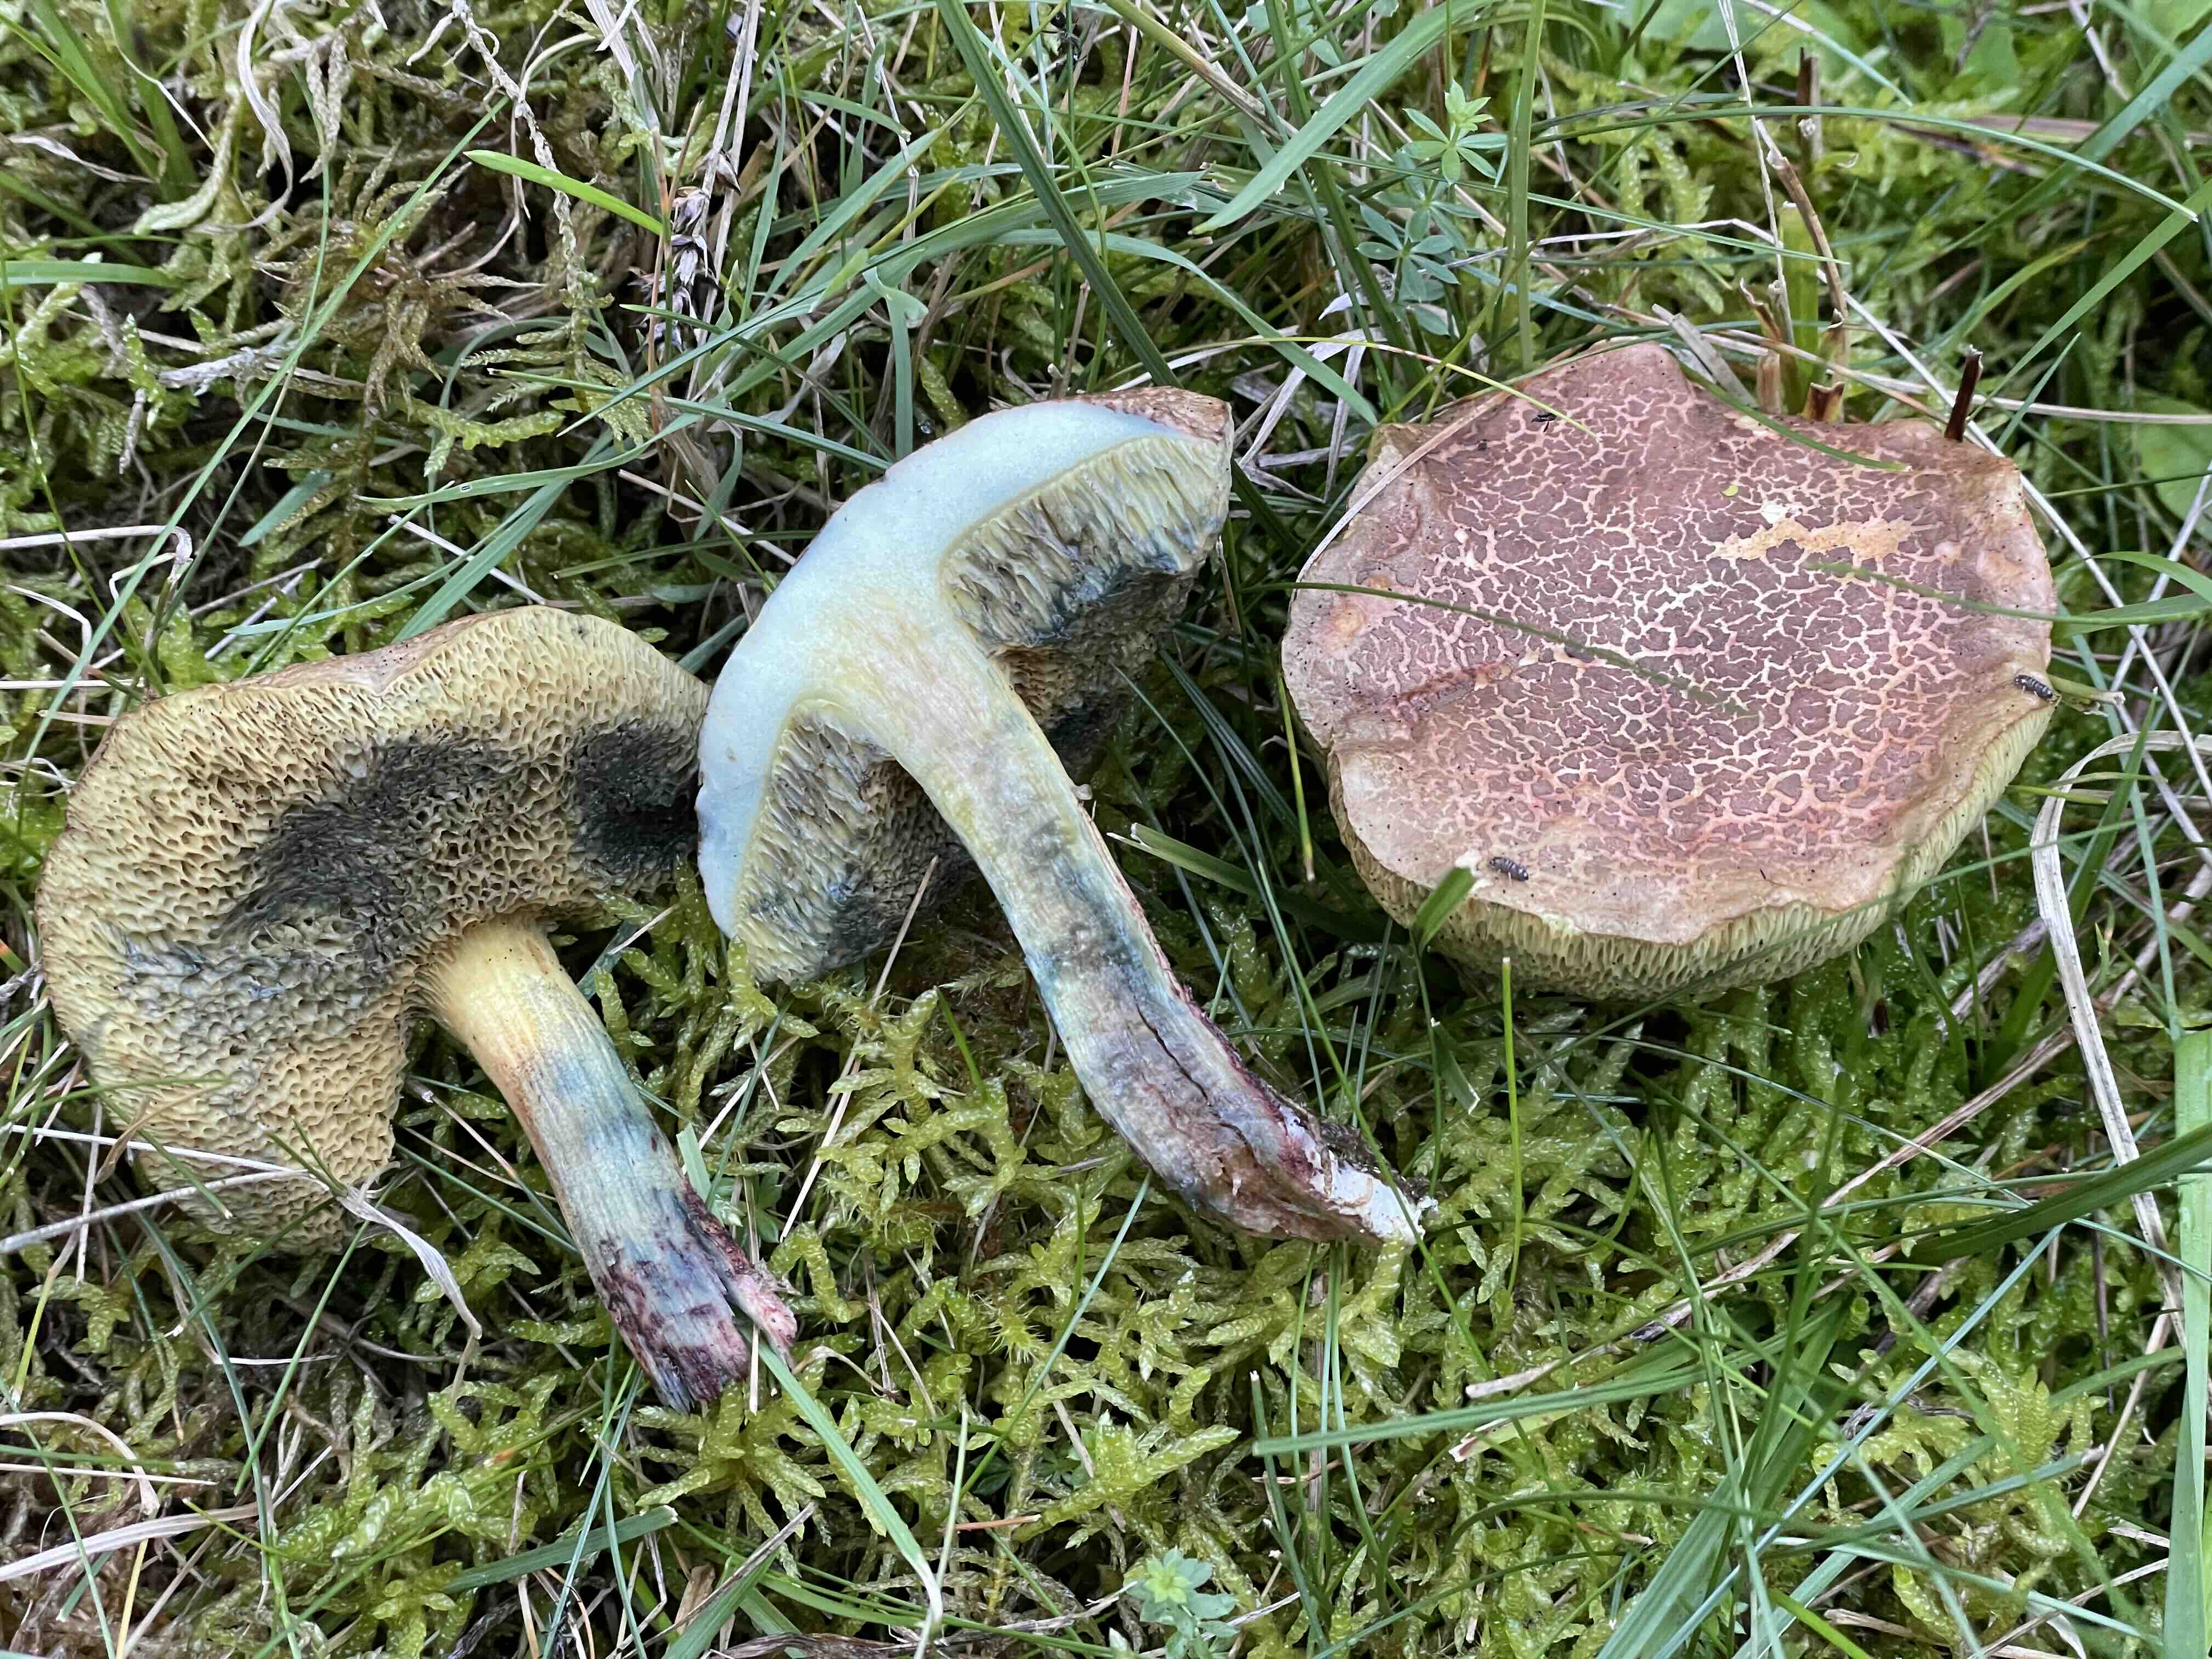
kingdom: Fungi
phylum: Basidiomycota
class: Agaricomycetes
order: Boletales
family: Boletaceae
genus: Xerocomellus
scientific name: Xerocomellus cisalpinus
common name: finsprukken rørhat
